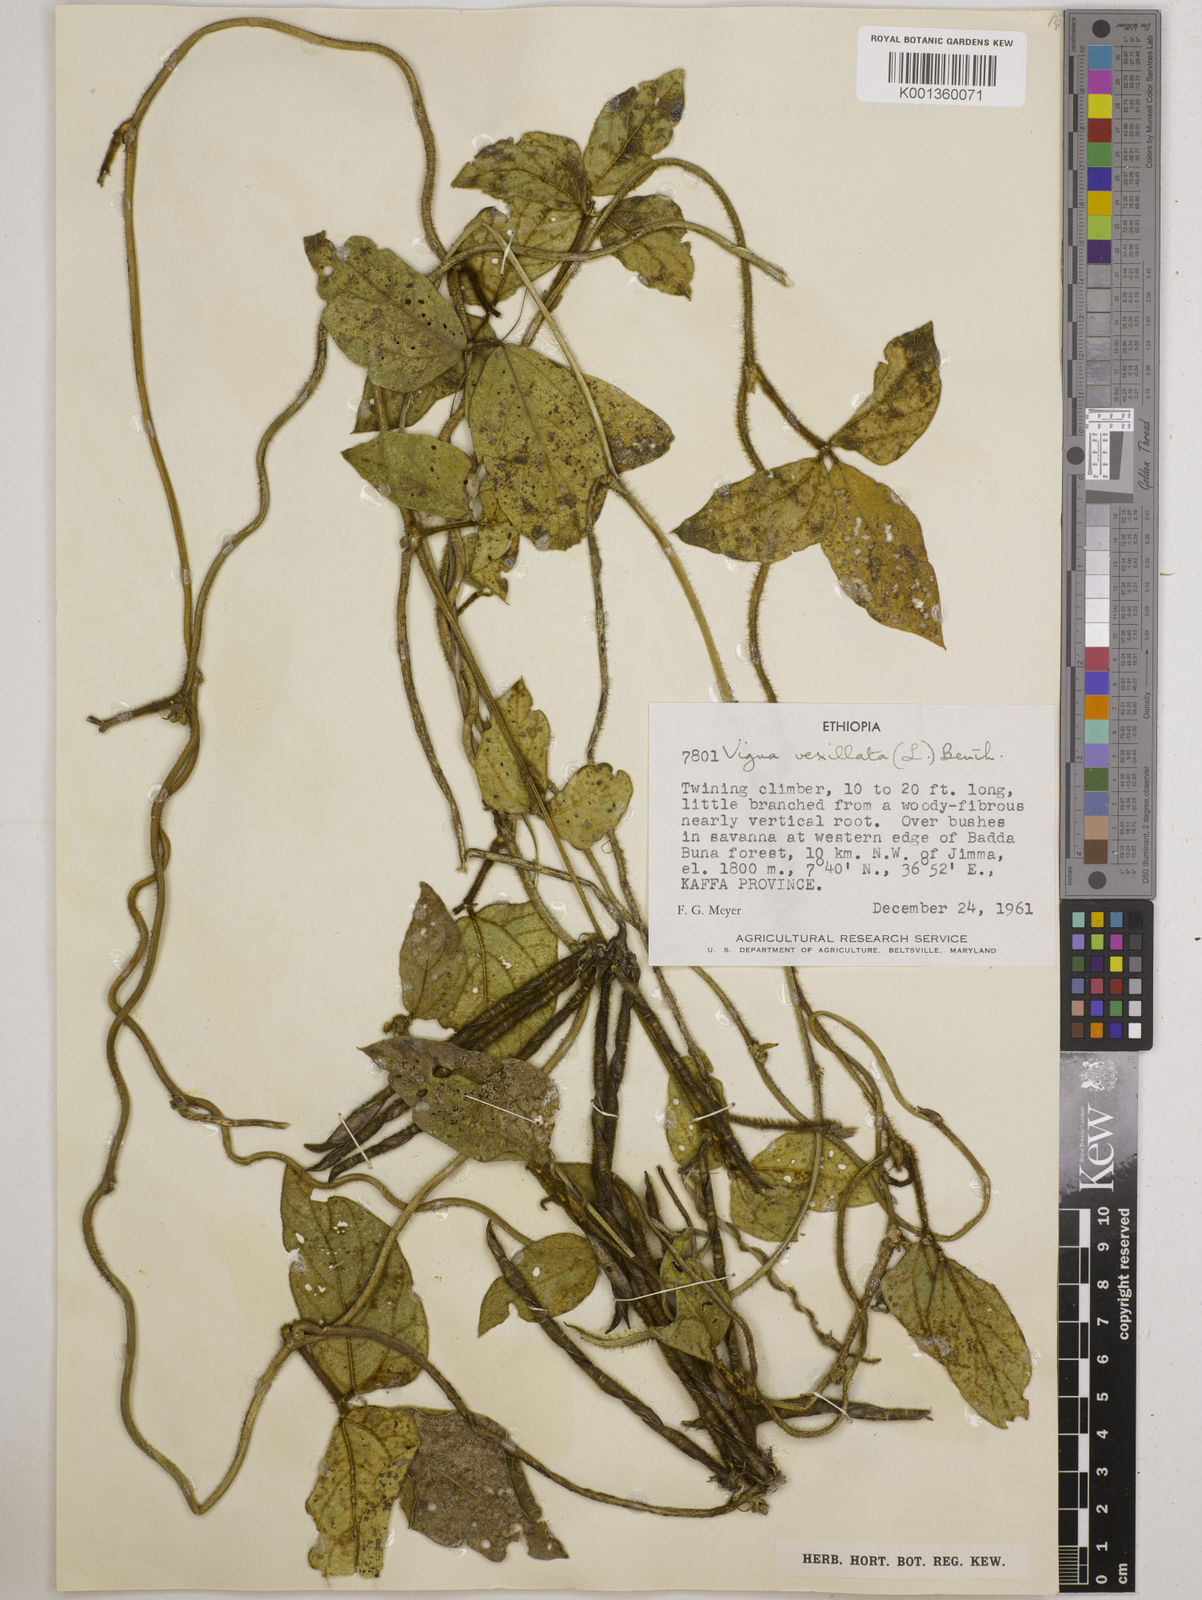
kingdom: Plantae
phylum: Tracheophyta
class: Magnoliopsida
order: Fabales
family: Fabaceae
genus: Vigna
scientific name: Vigna vexillata
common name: Zombi pea
